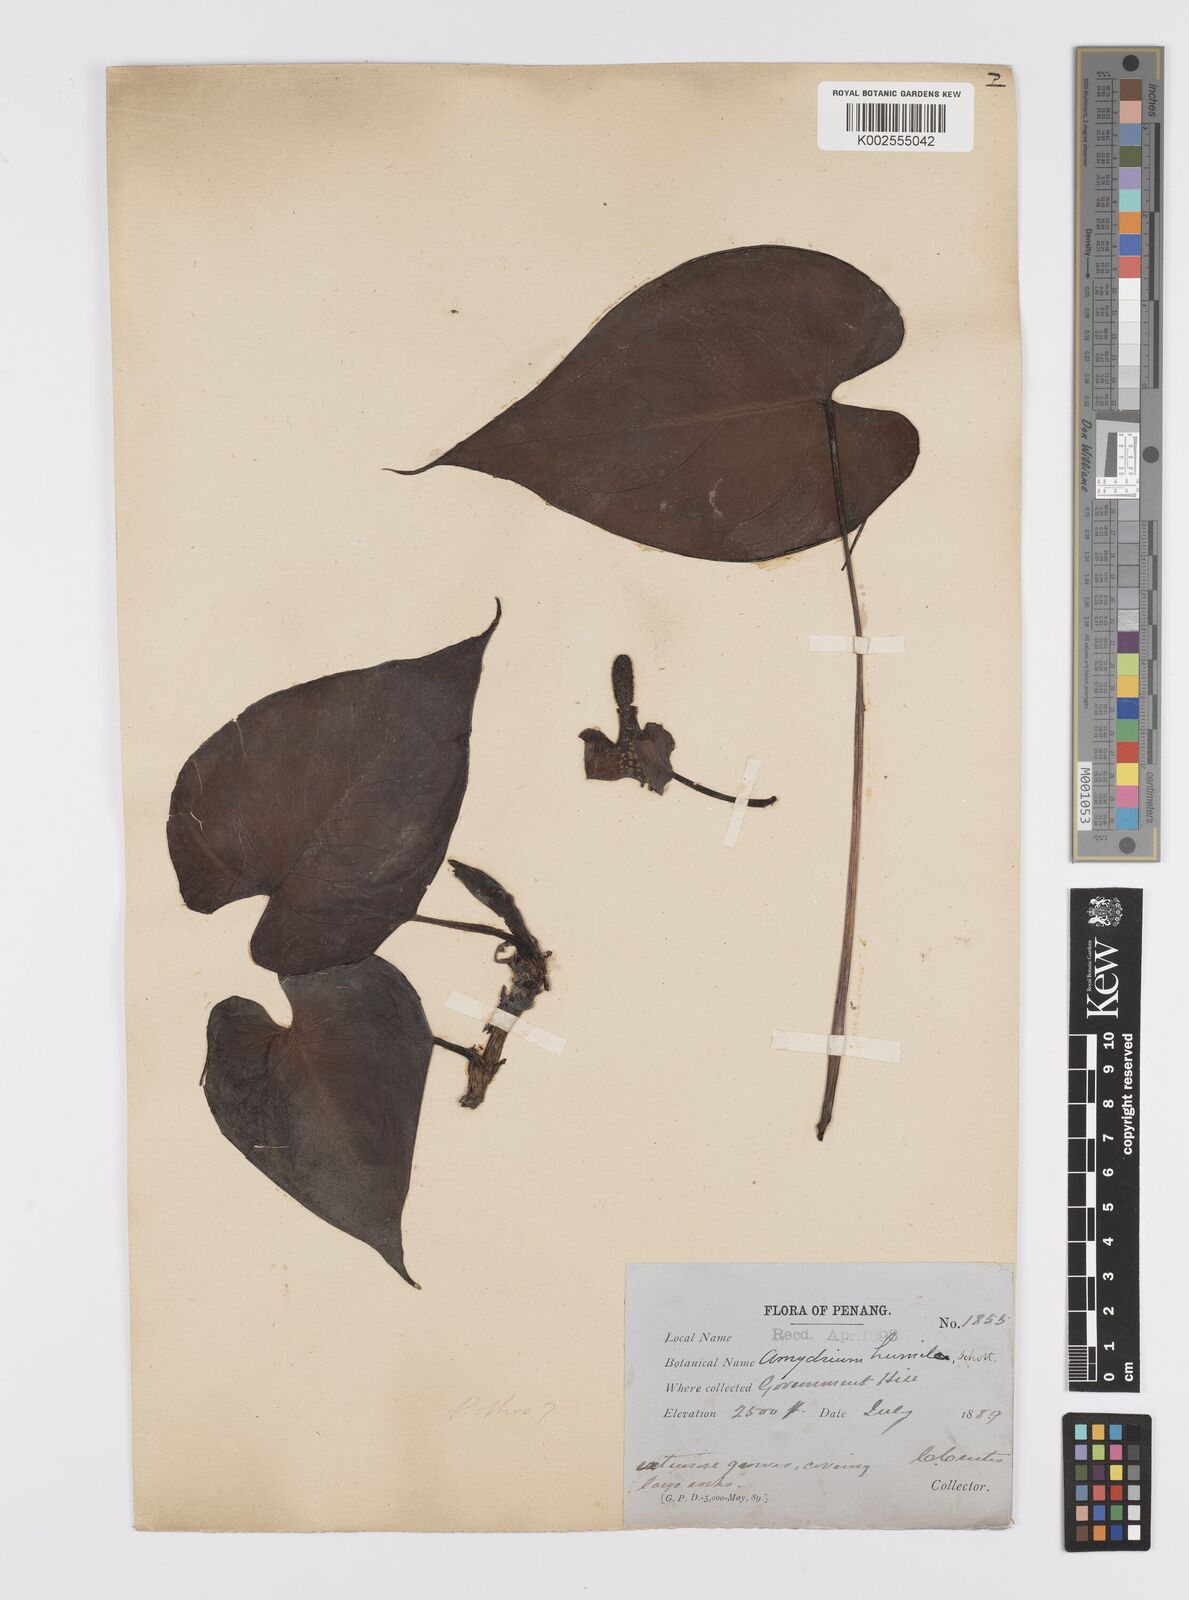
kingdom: Plantae
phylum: Tracheophyta
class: Liliopsida
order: Alismatales
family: Araceae
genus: Amydrium
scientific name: Amydrium humile
